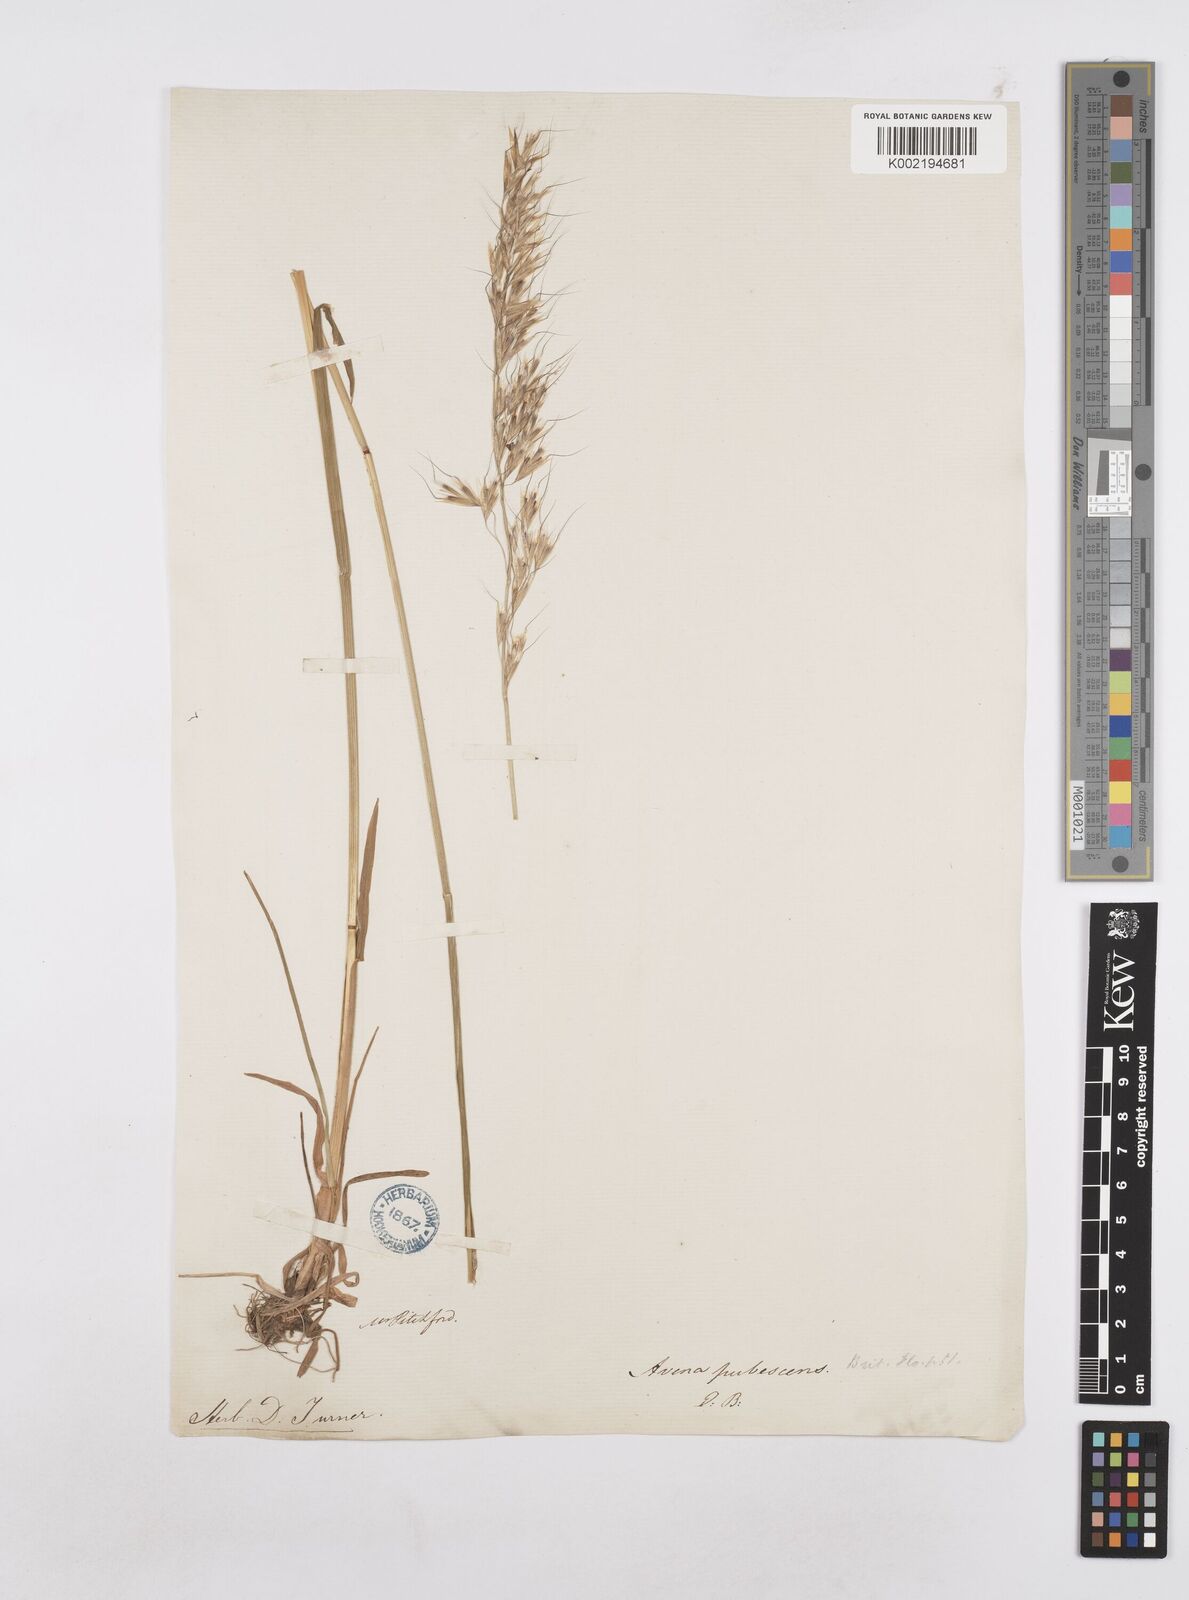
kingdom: Plantae
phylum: Tracheophyta
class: Liliopsida
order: Poales
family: Poaceae
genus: Avenula
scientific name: Avenula pubescens
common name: Downy alpine oatgrass
